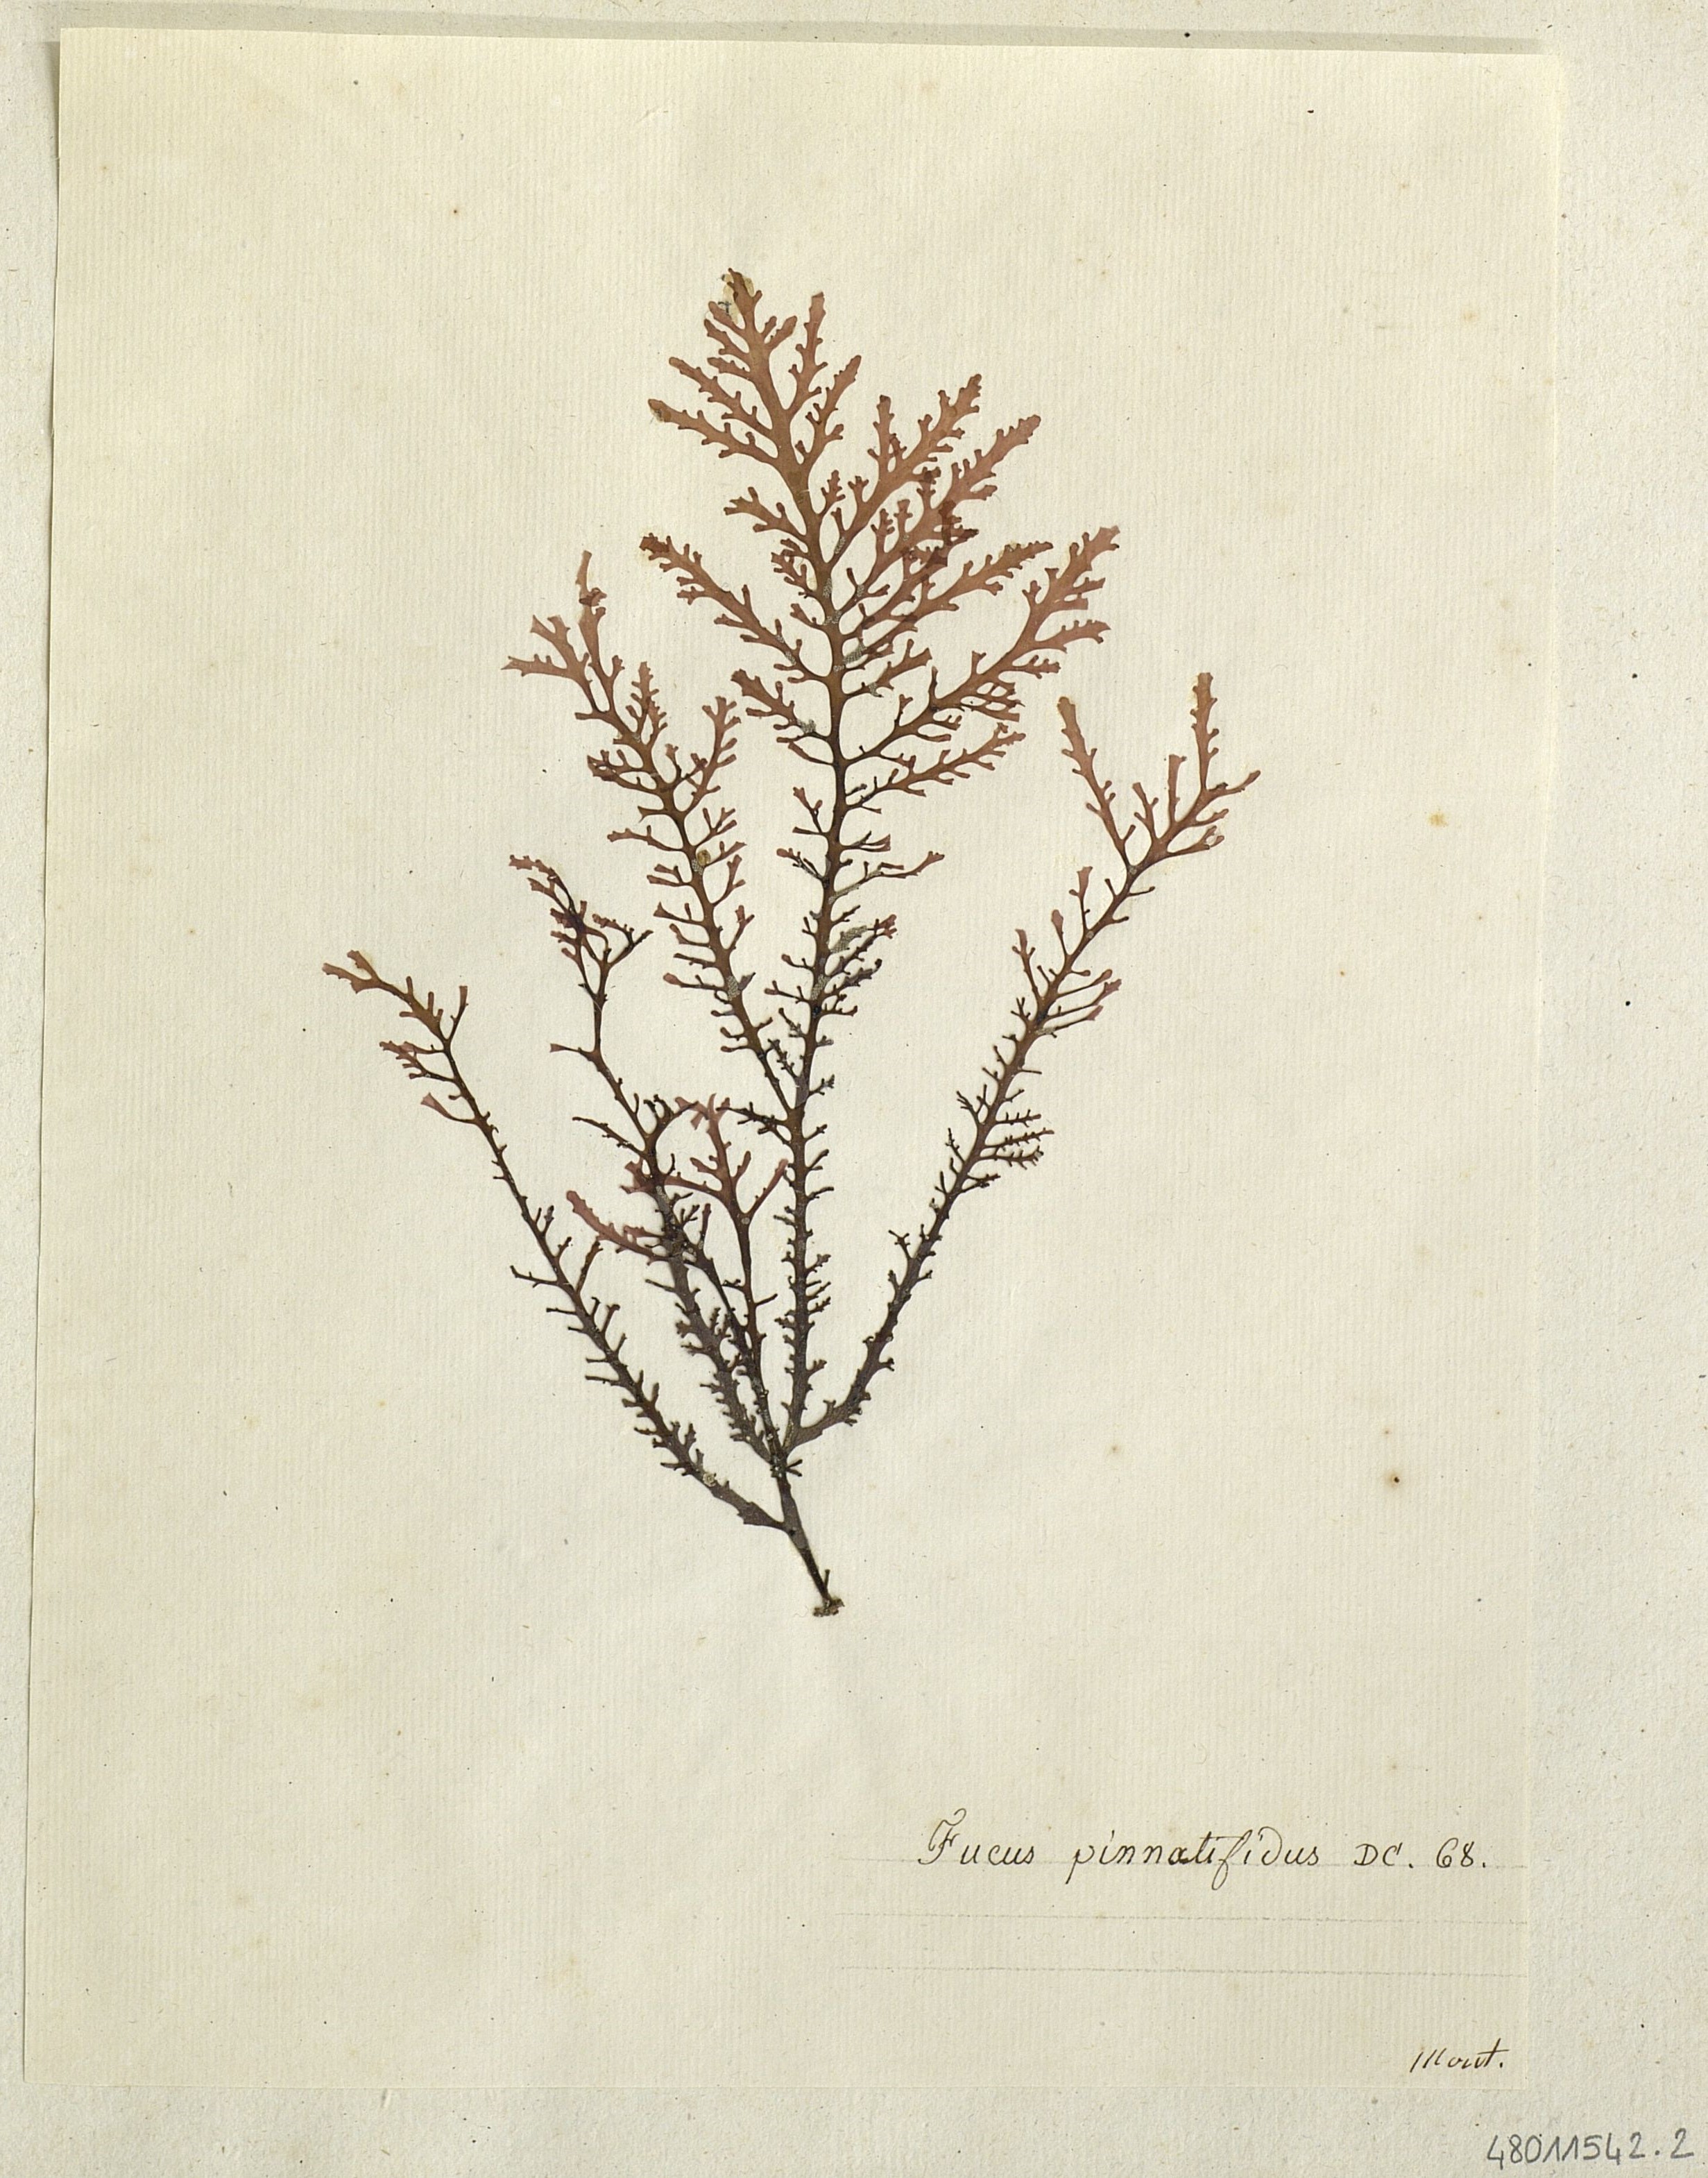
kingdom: Chromista
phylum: Ochrophyta
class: Phaeophyceae
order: Fucales
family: Fucaceae
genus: Fucus
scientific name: Fucus
